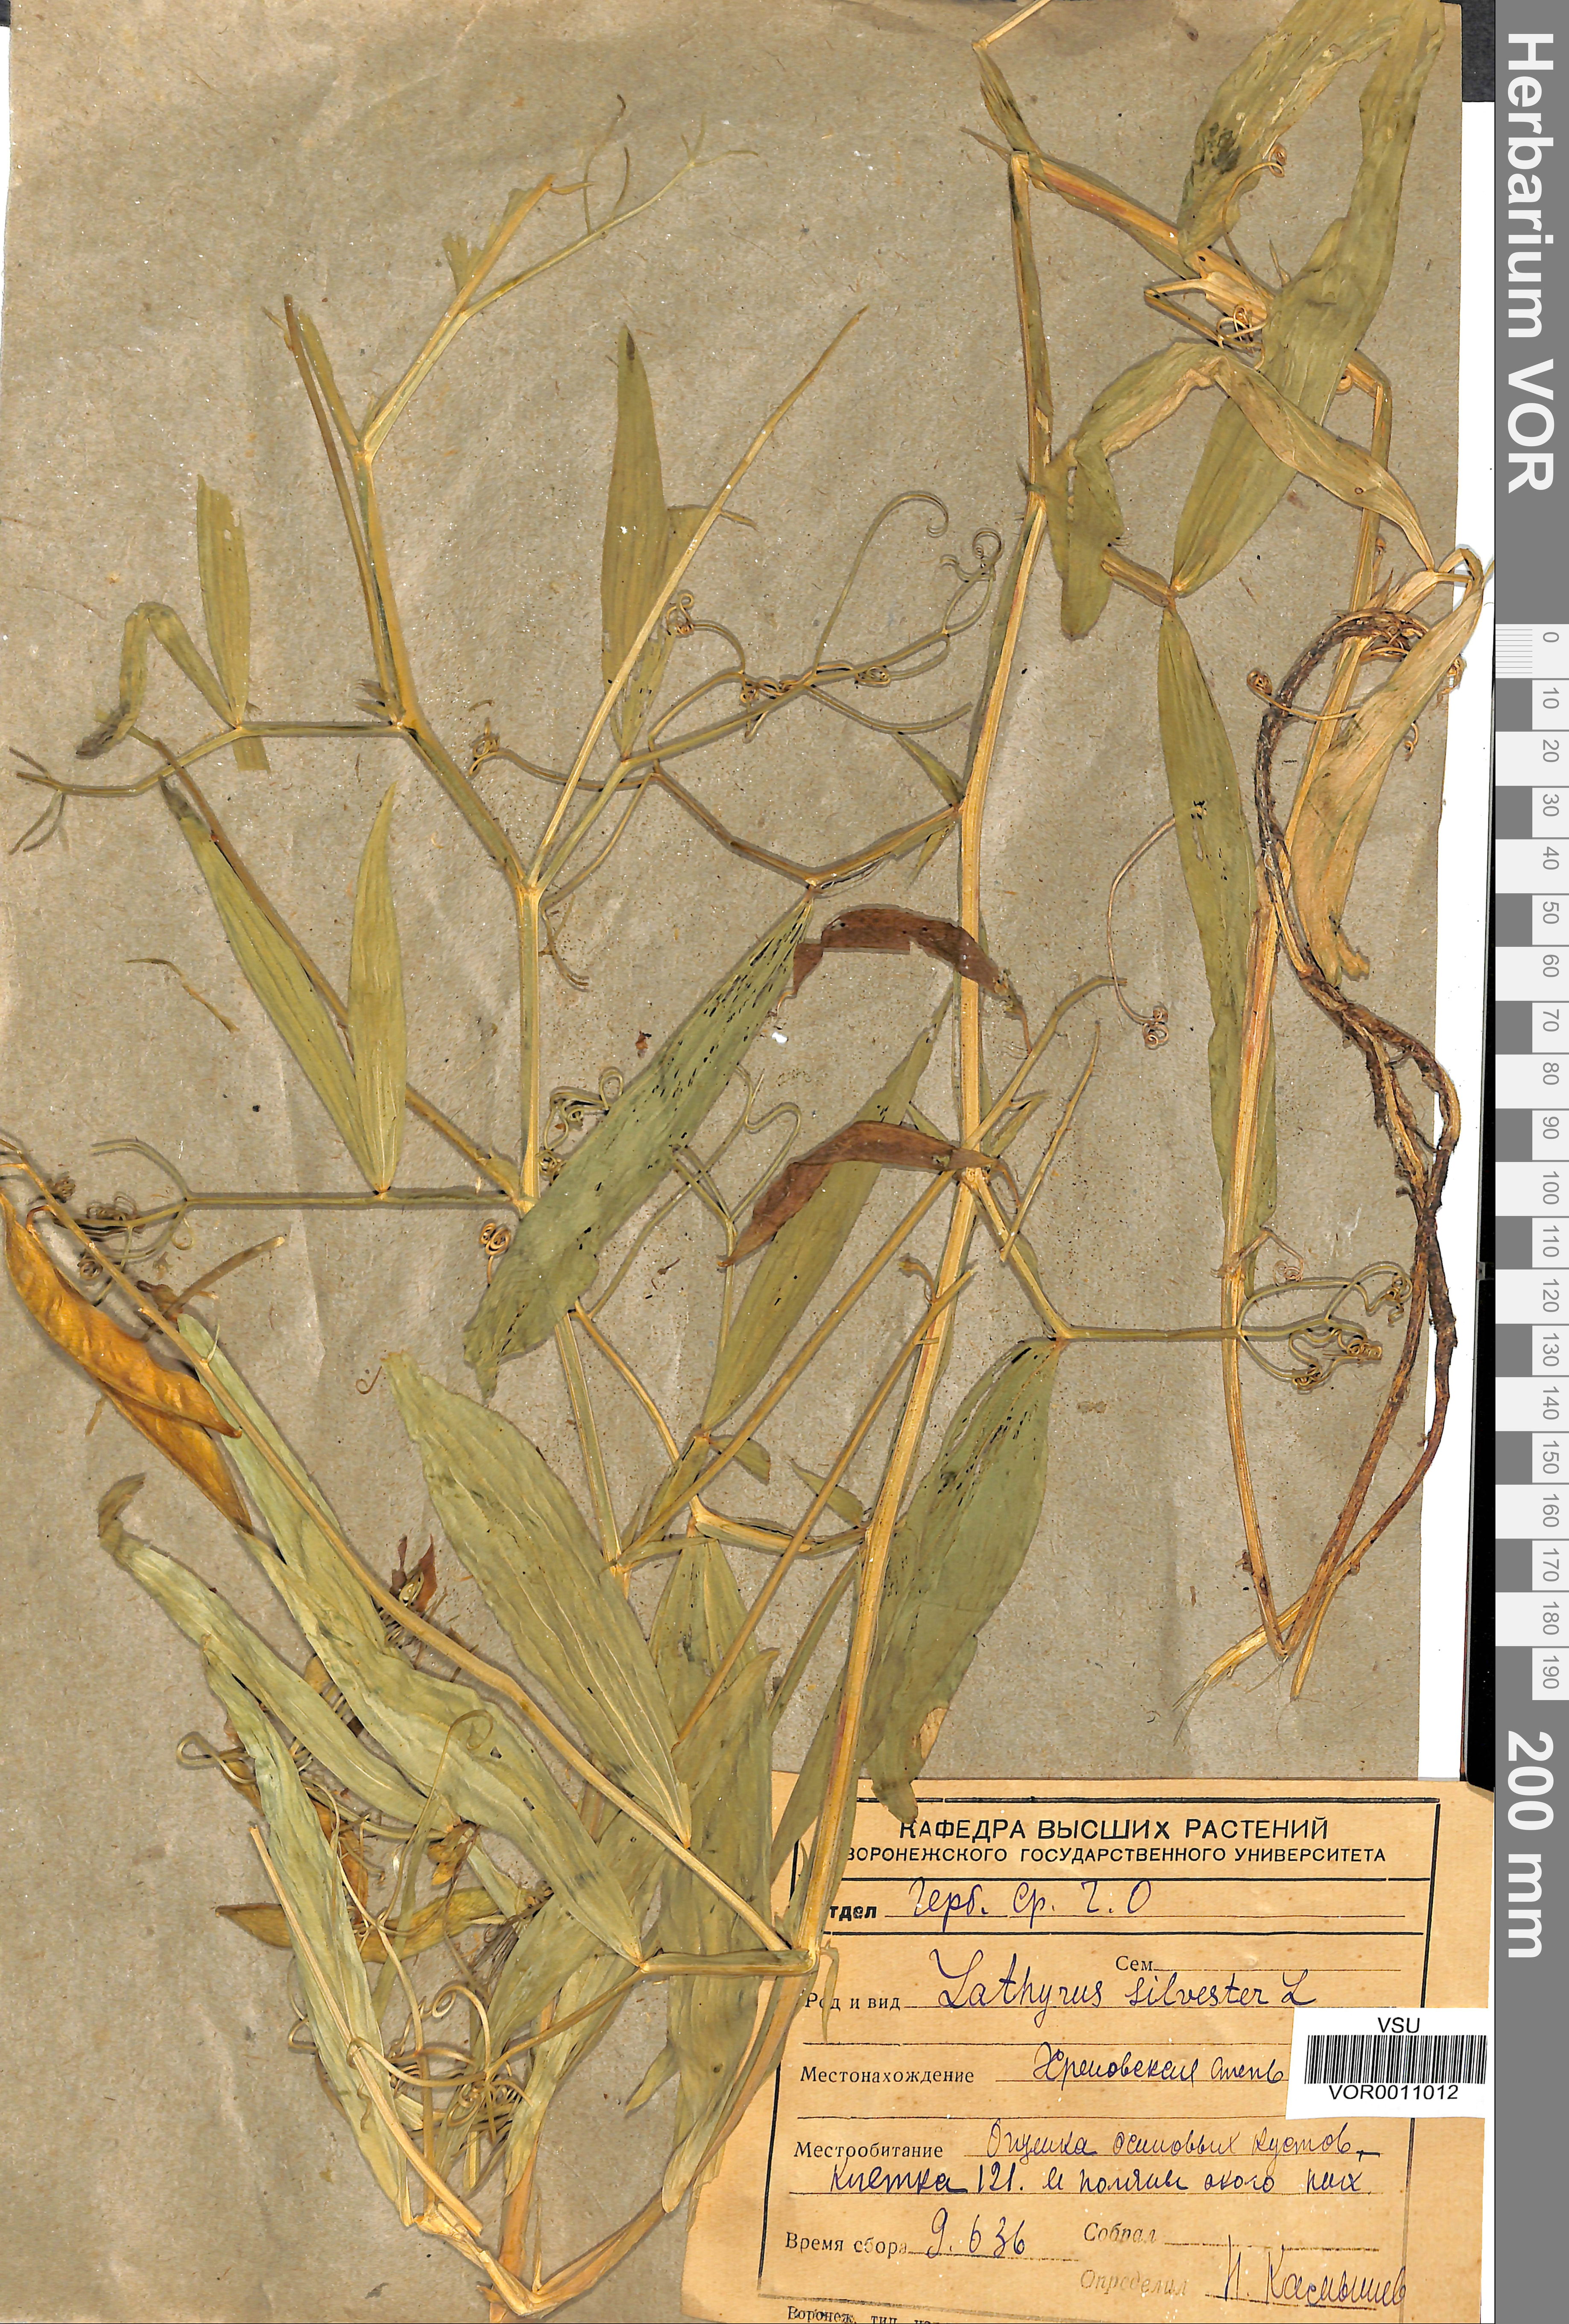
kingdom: Plantae
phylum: Tracheophyta
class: Magnoliopsida
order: Fabales
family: Fabaceae
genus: Lathyrus
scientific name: Lathyrus sylvestris
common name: Flat pea
